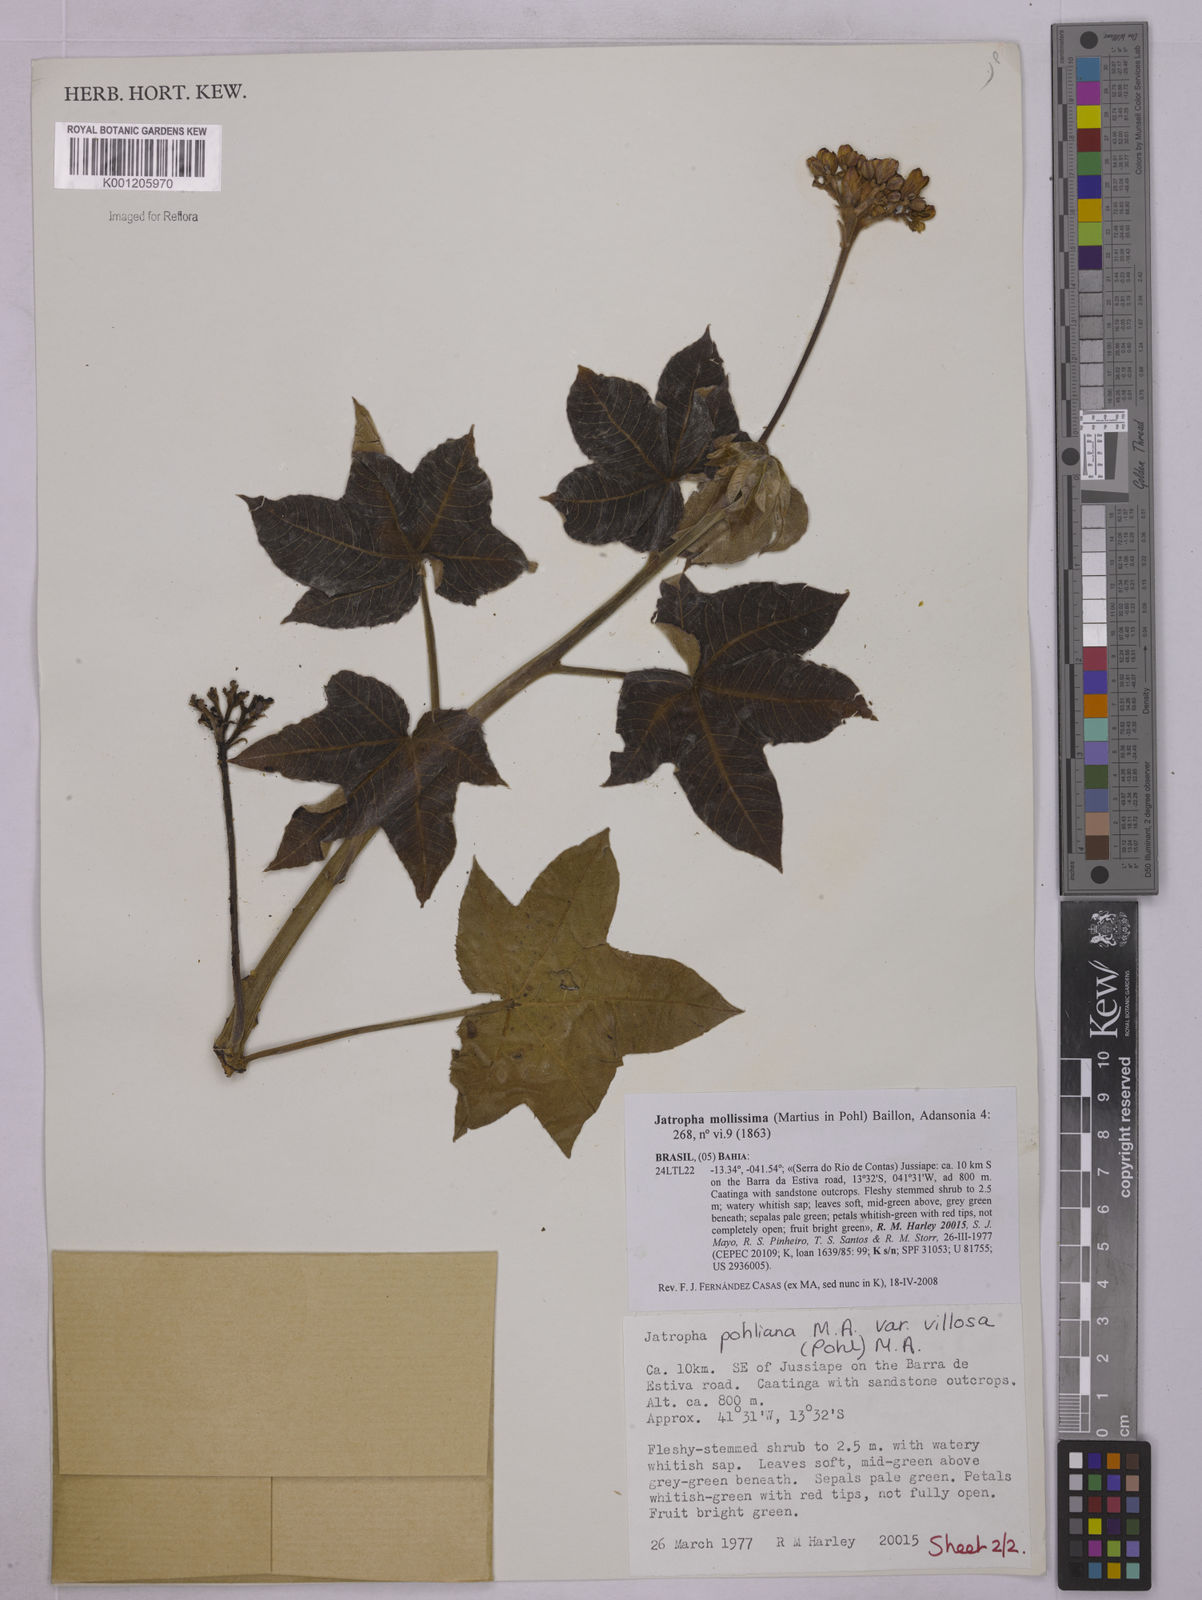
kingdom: Plantae
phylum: Tracheophyta
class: Magnoliopsida
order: Malpighiales
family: Euphorbiaceae
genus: Jatropha
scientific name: Jatropha mollissima
